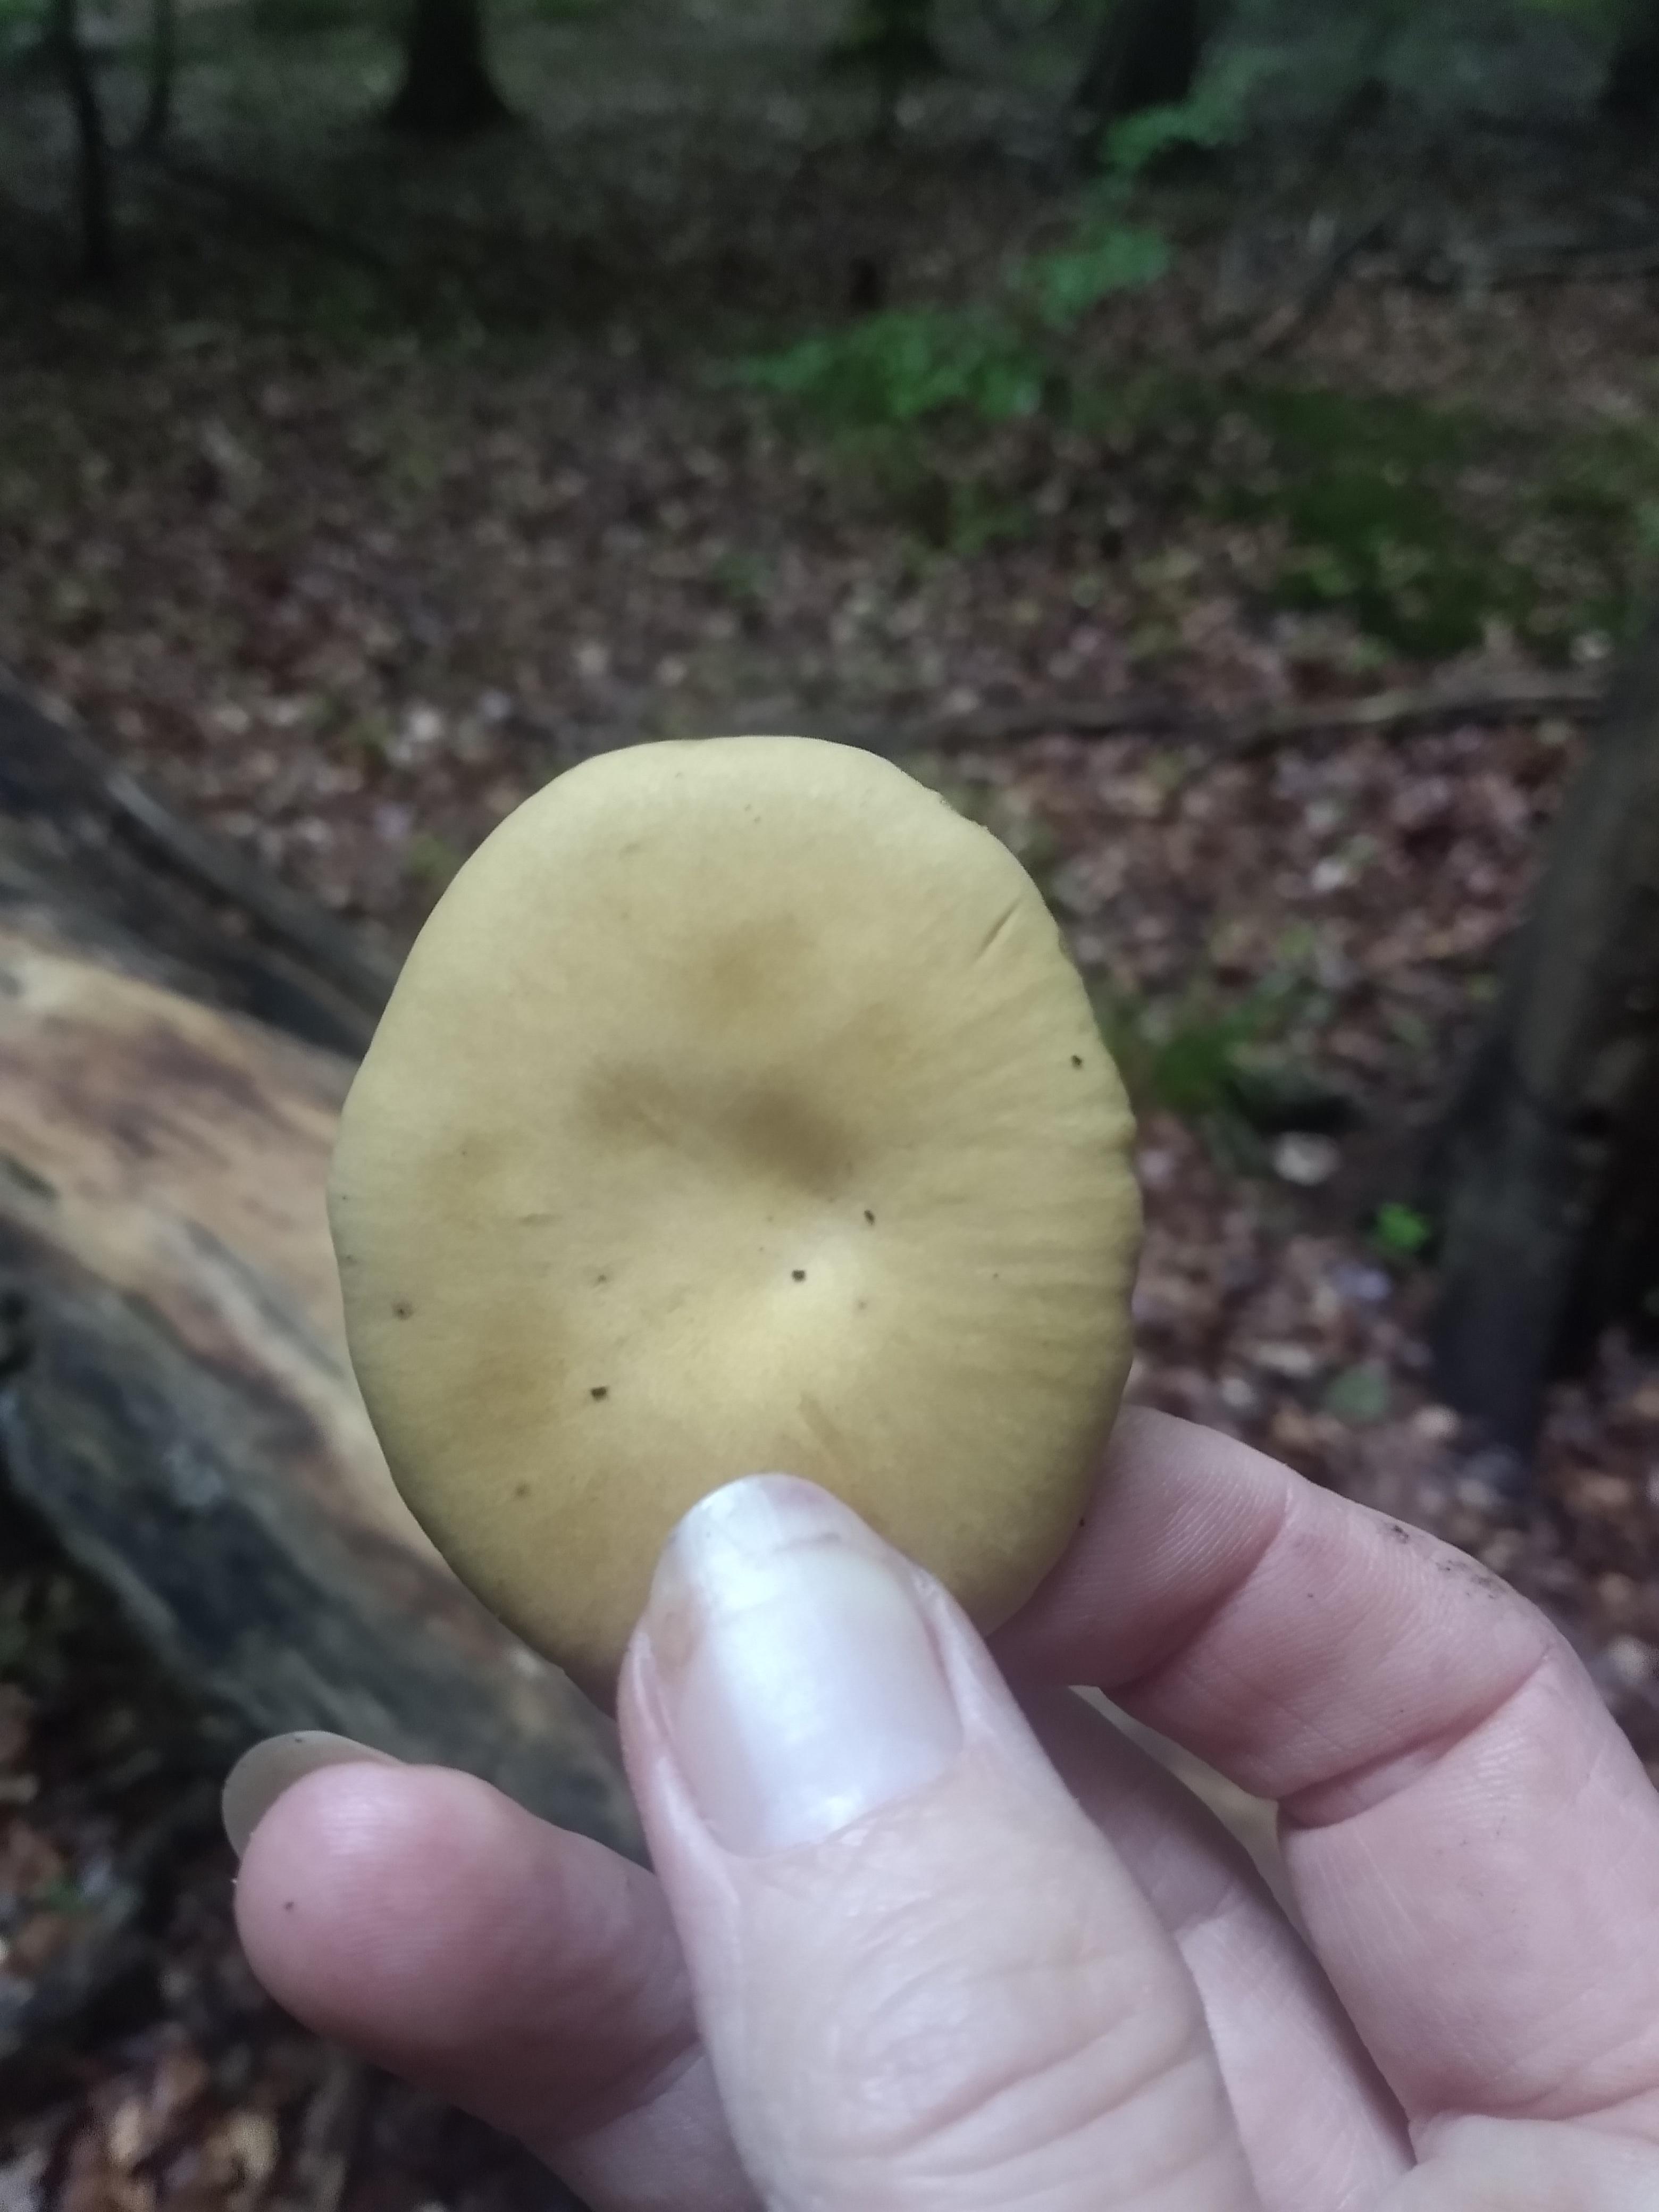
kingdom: Fungi
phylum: Basidiomycota
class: Agaricomycetes
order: Polyporales
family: Polyporaceae
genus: Cerioporus
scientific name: Cerioporus varius
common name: foranderlig stilkporesvamp
